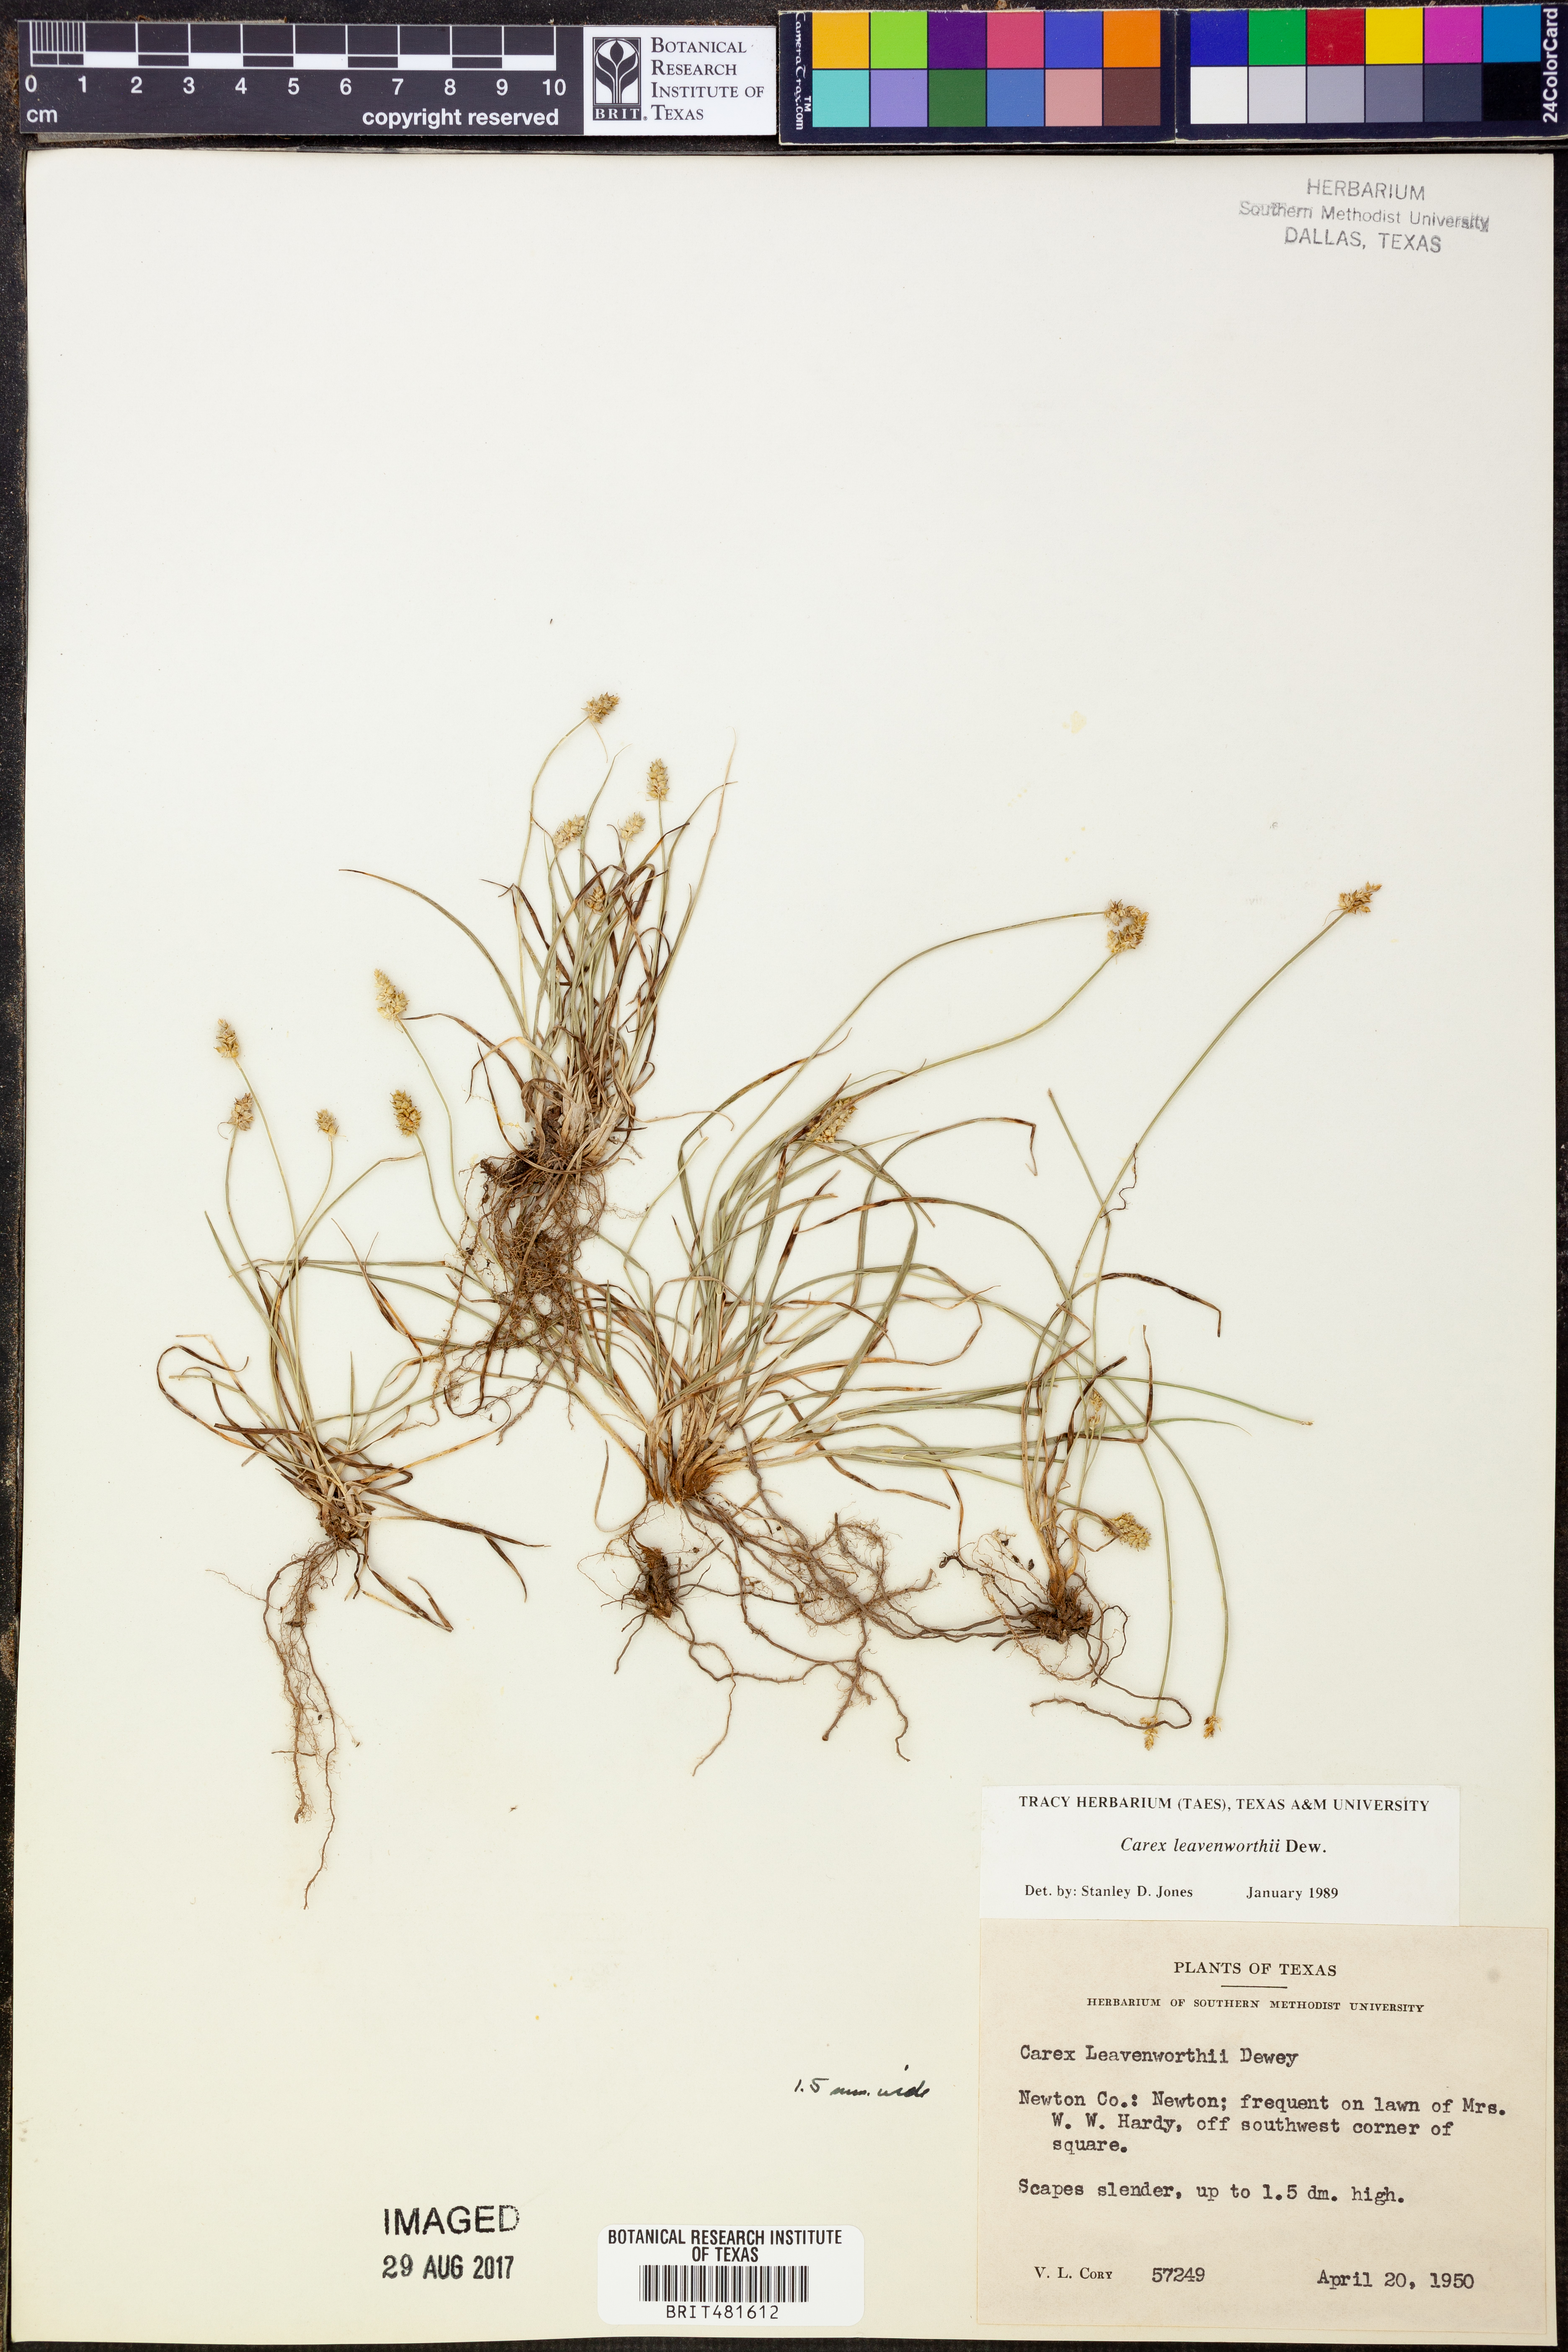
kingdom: Plantae
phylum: Tracheophyta
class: Liliopsida
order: Poales
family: Cyperaceae
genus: Carex
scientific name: Carex leavenworthii
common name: Leavenworth's bracted sedge
